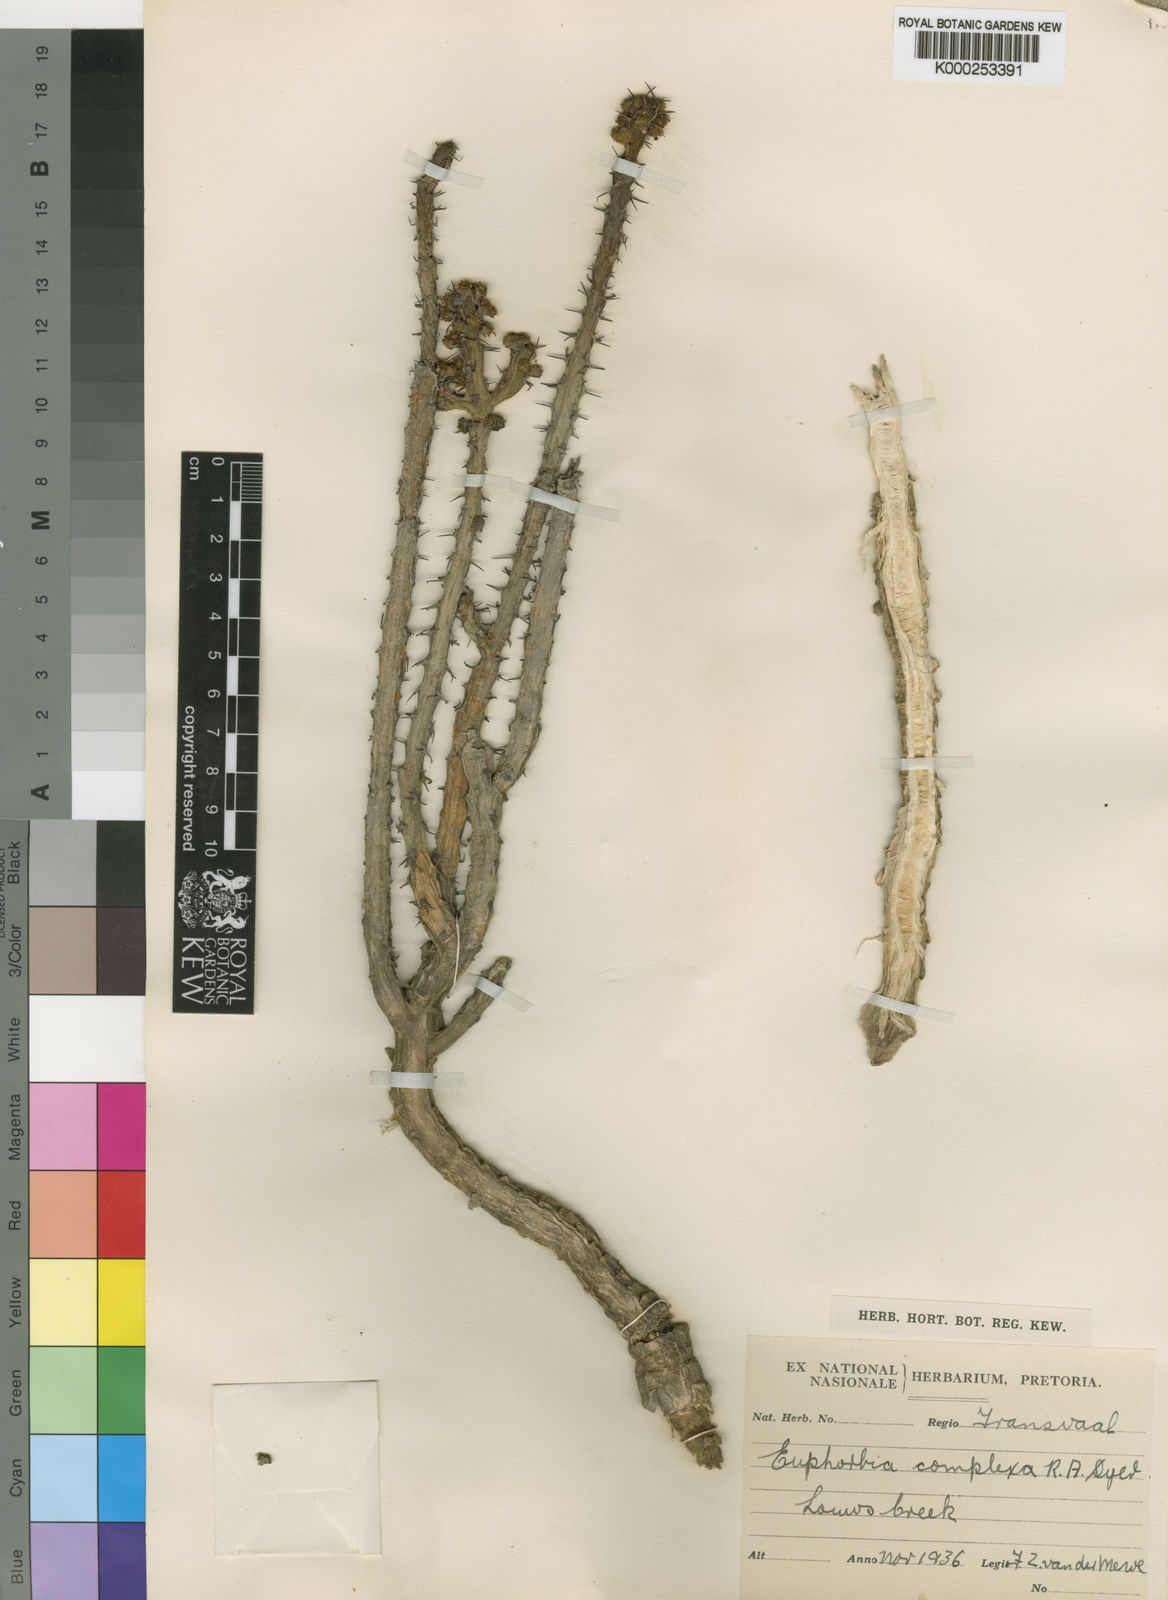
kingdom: Plantae
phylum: Tracheophyta
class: Magnoliopsida
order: Malpighiales
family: Euphorbiaceae
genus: Euphorbia
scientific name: Euphorbia schinzii
